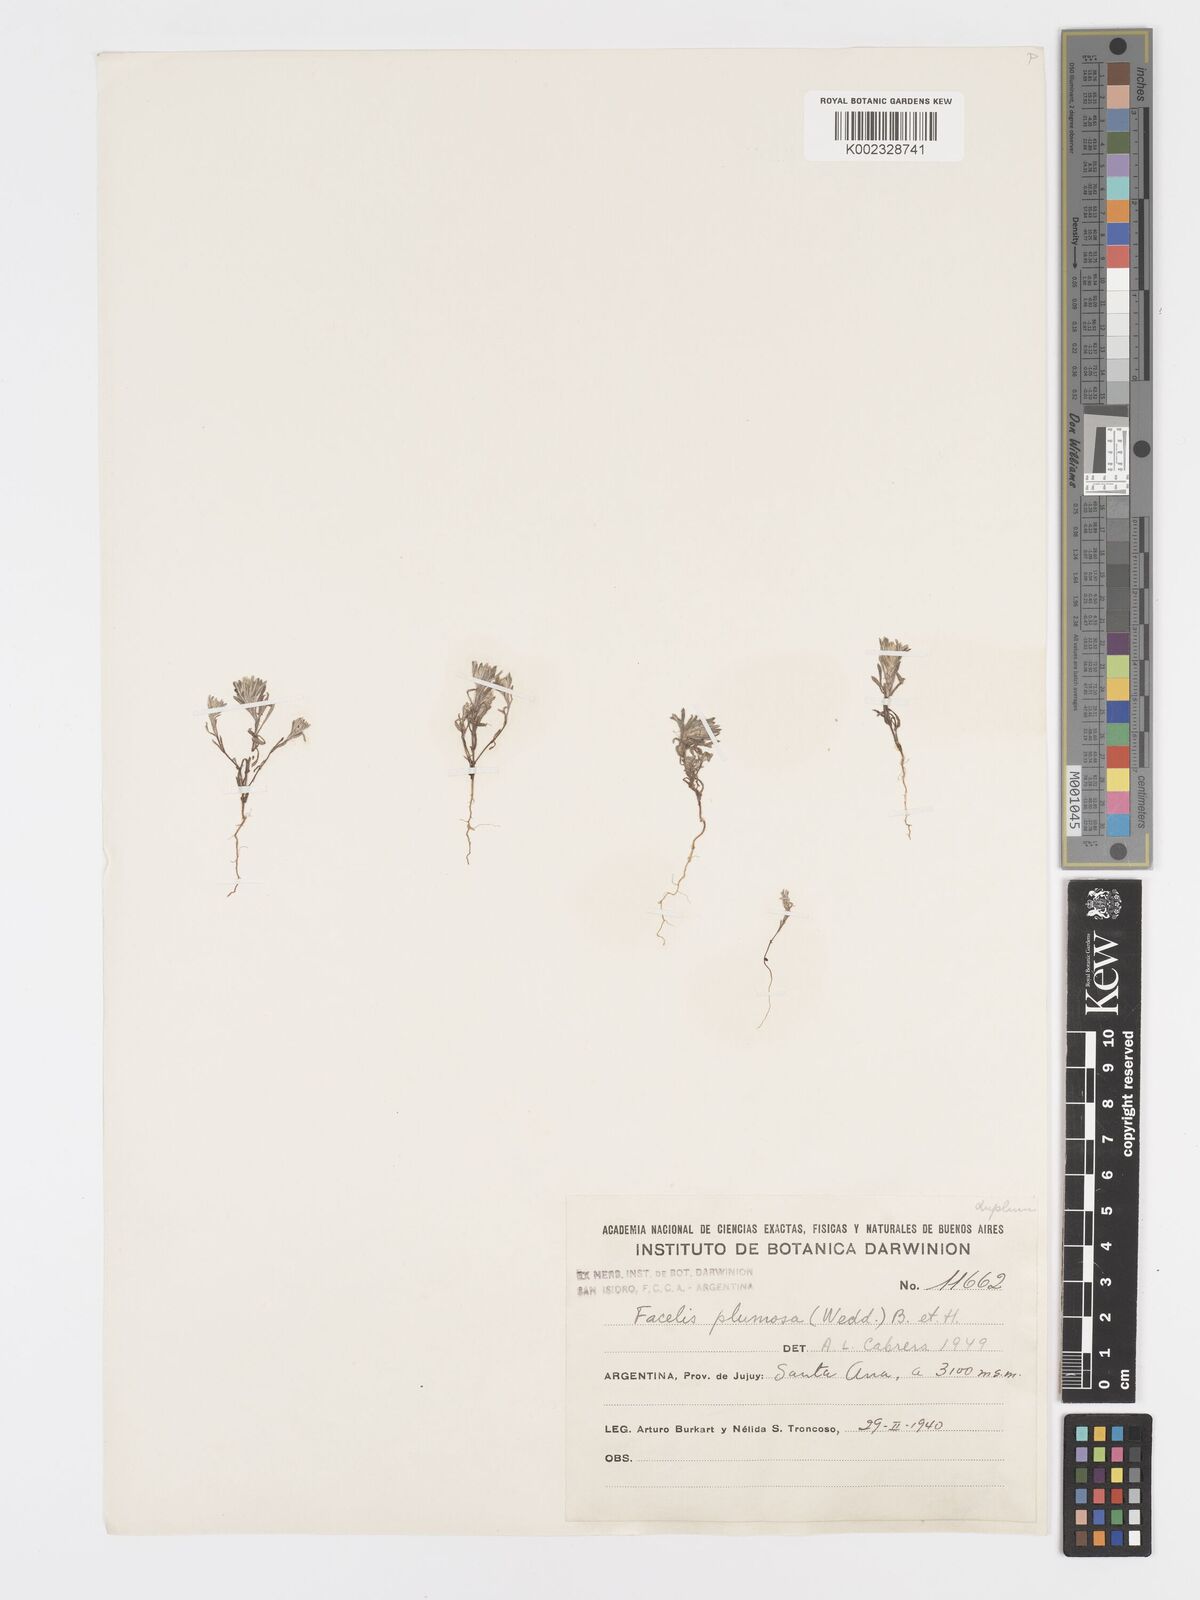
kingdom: Plantae
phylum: Tracheophyta
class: Magnoliopsida
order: Asterales
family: Asteraceae
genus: Facelis
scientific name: Facelis plumosa
